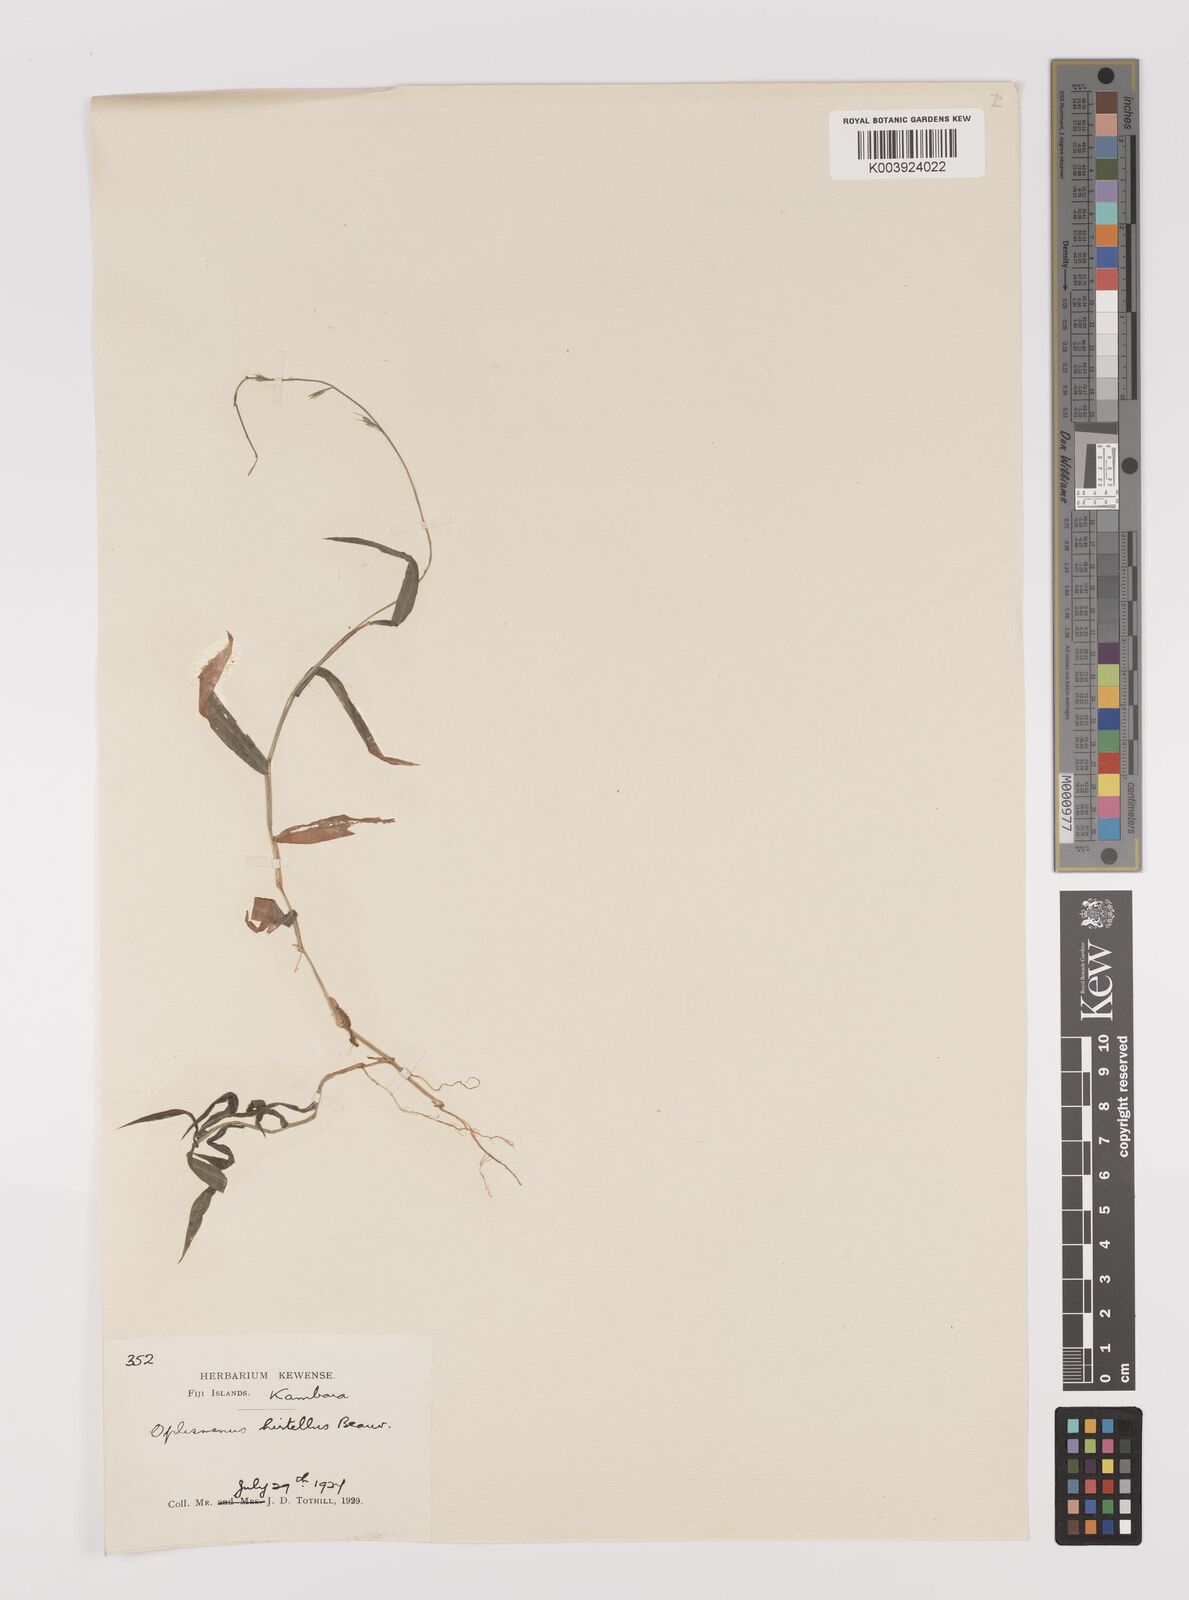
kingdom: Plantae
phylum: Tracheophyta
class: Liliopsida
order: Poales
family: Poaceae
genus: Oplismenus
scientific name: Oplismenus hirtellus
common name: Basketgrass
